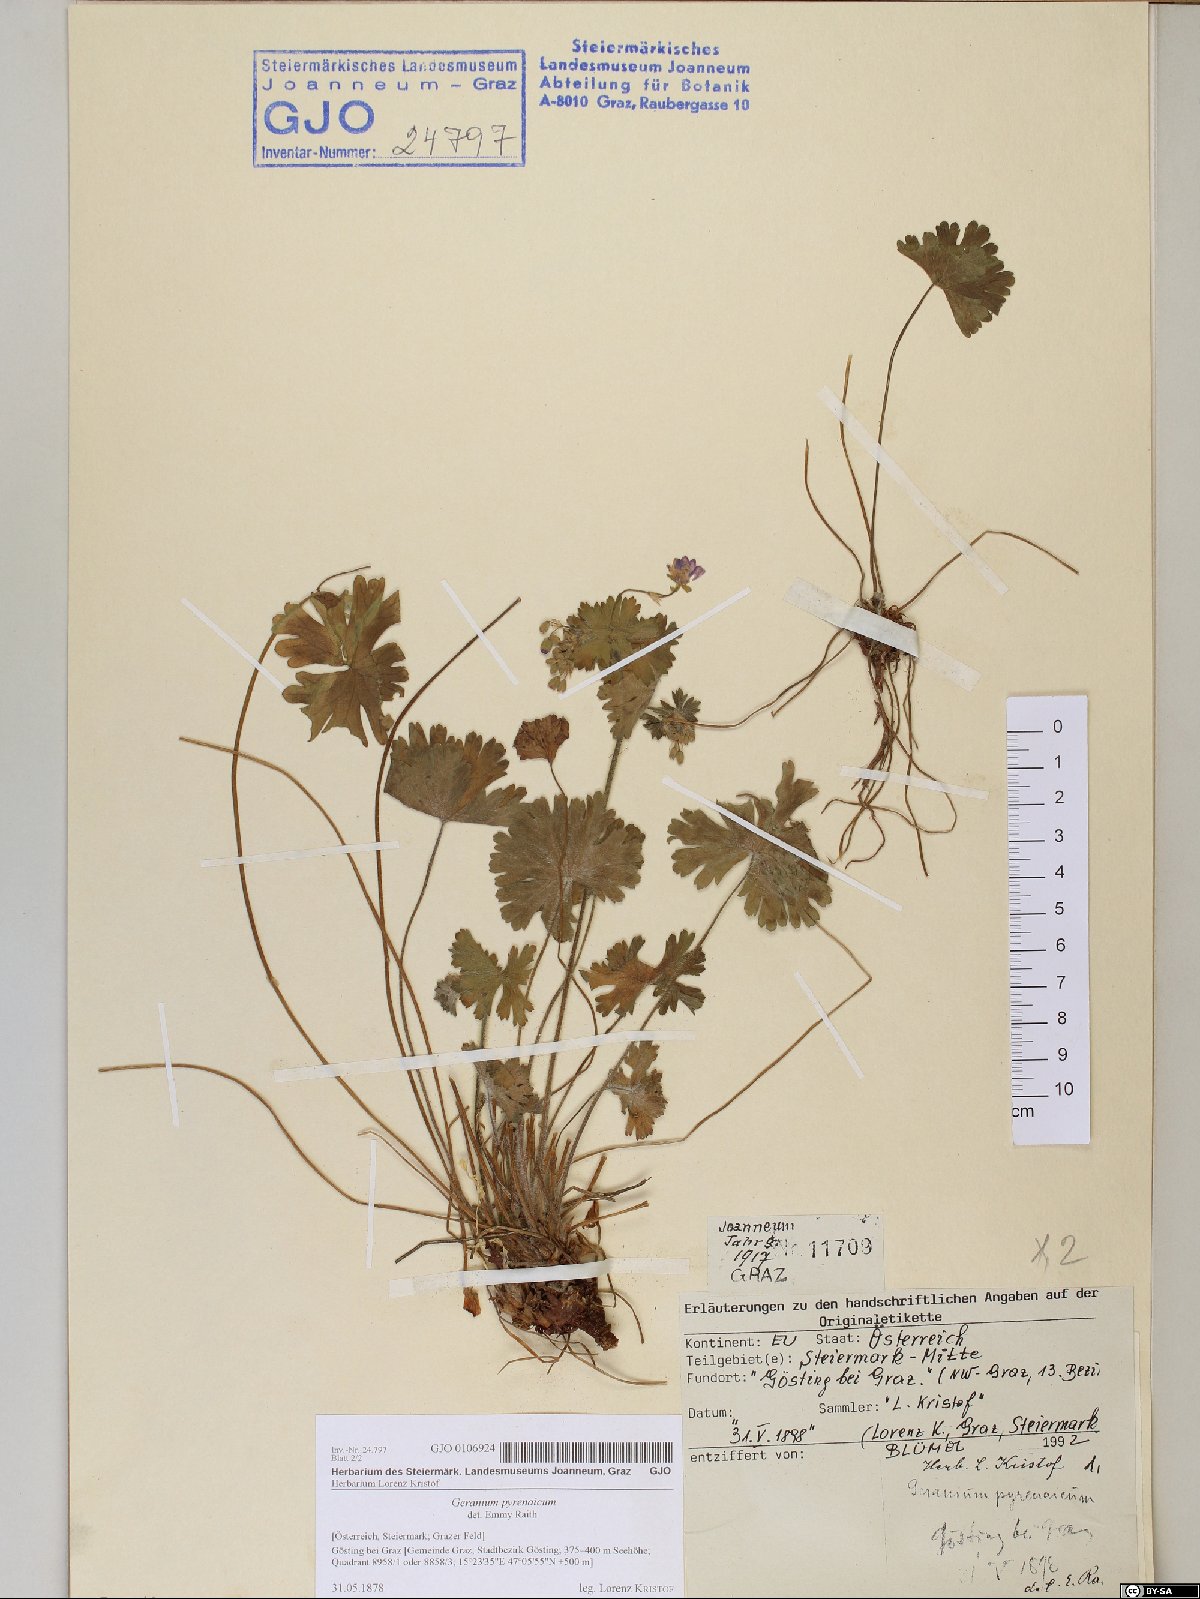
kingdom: Plantae
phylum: Tracheophyta
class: Magnoliopsida
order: Geraniales
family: Geraniaceae
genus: Geranium
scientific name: Geranium pyrenaicum
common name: Hedgerow crane's-bill
